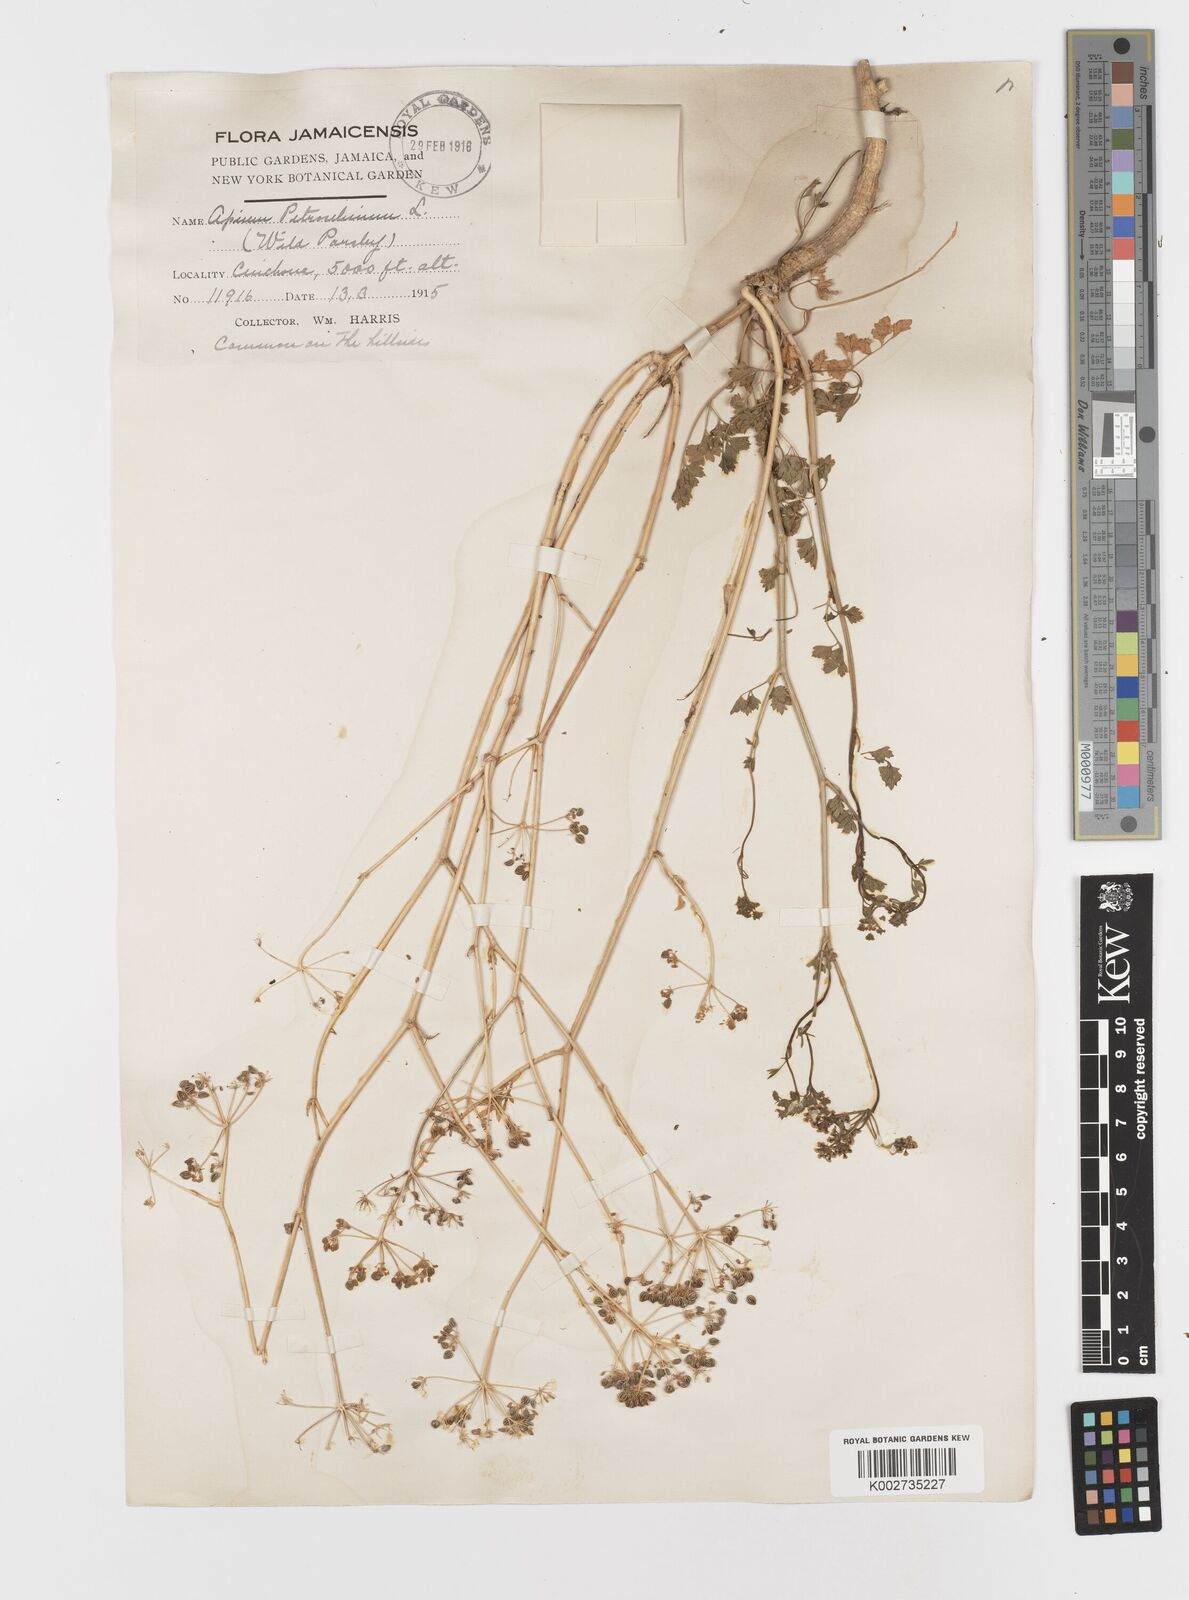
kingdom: Plantae
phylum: Tracheophyta
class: Magnoliopsida
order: Apiales
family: Apiaceae
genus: Petroselinum
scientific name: Petroselinum crispum
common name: Parsley
